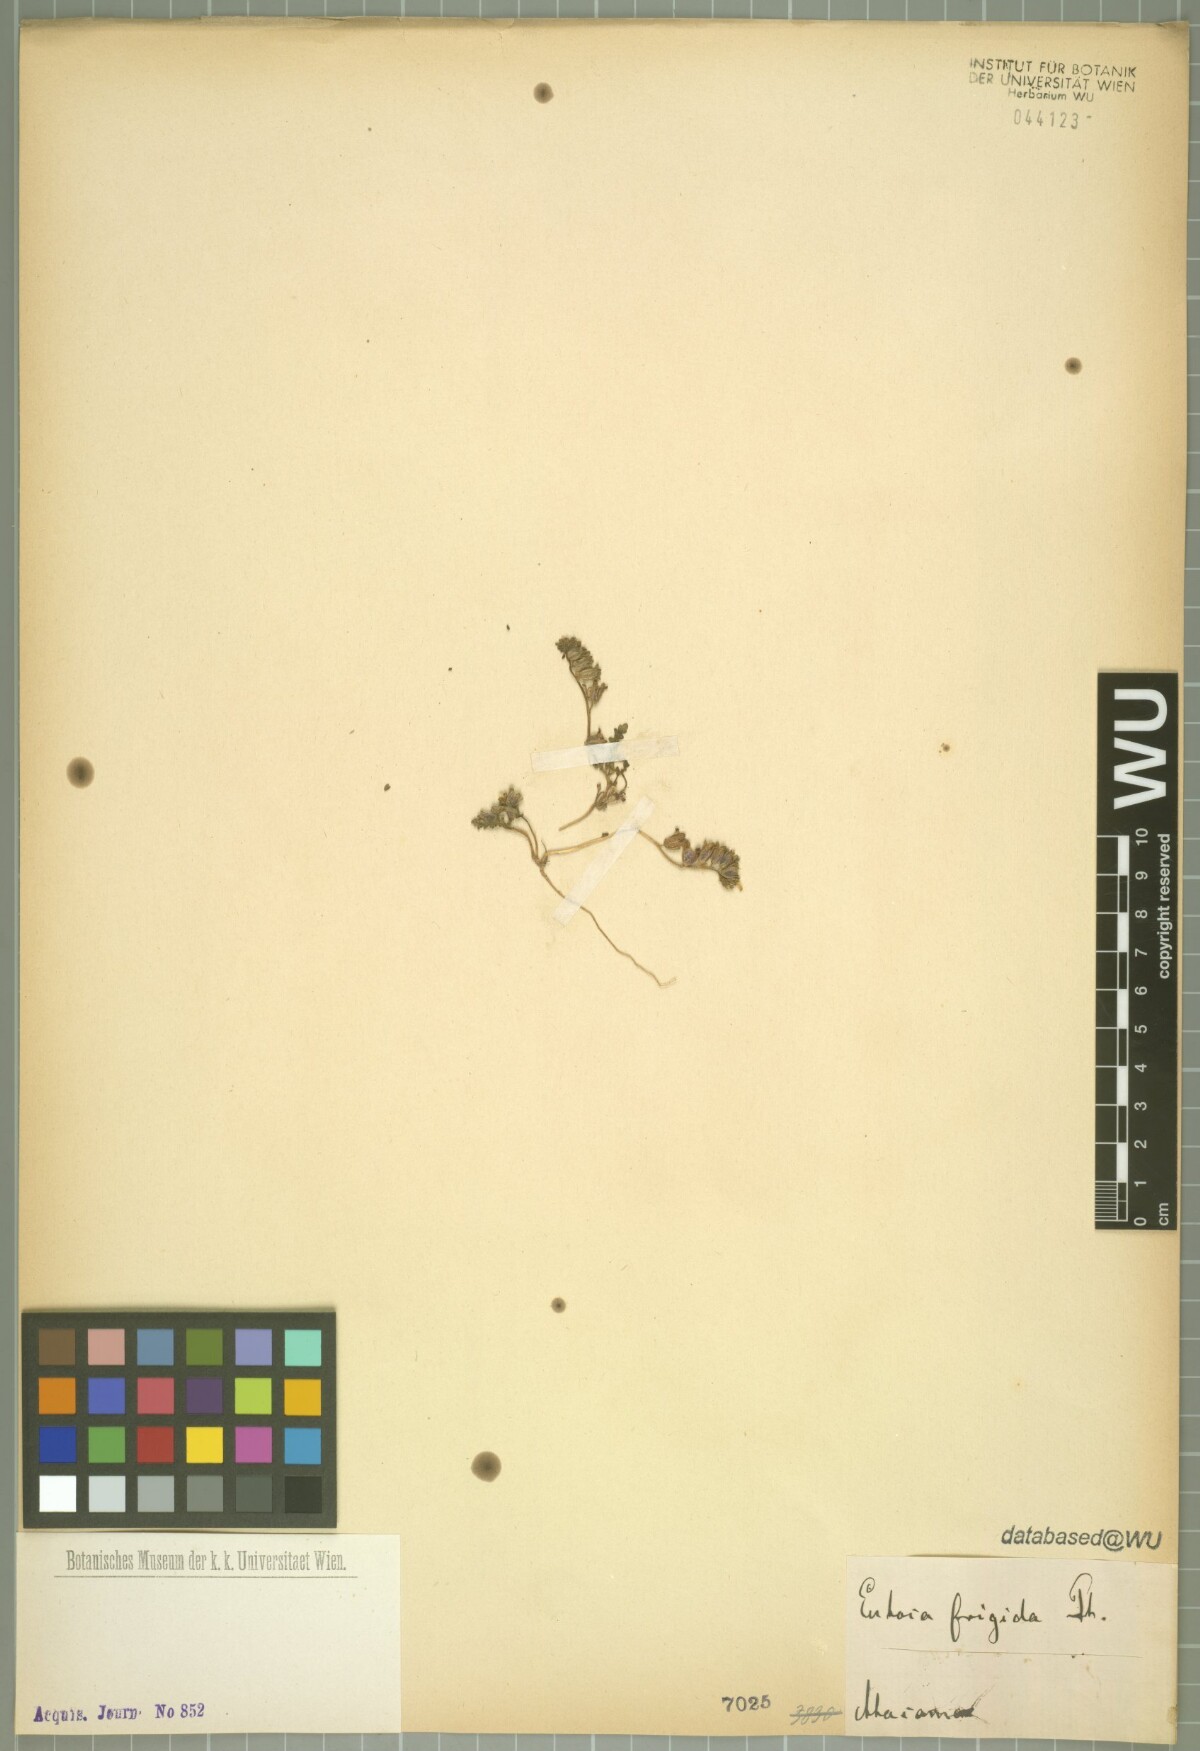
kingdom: Plantae
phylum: Tracheophyta
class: Magnoliopsida
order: Boraginales
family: Hydrophyllaceae
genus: Phacelia
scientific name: Phacelia cumingii
